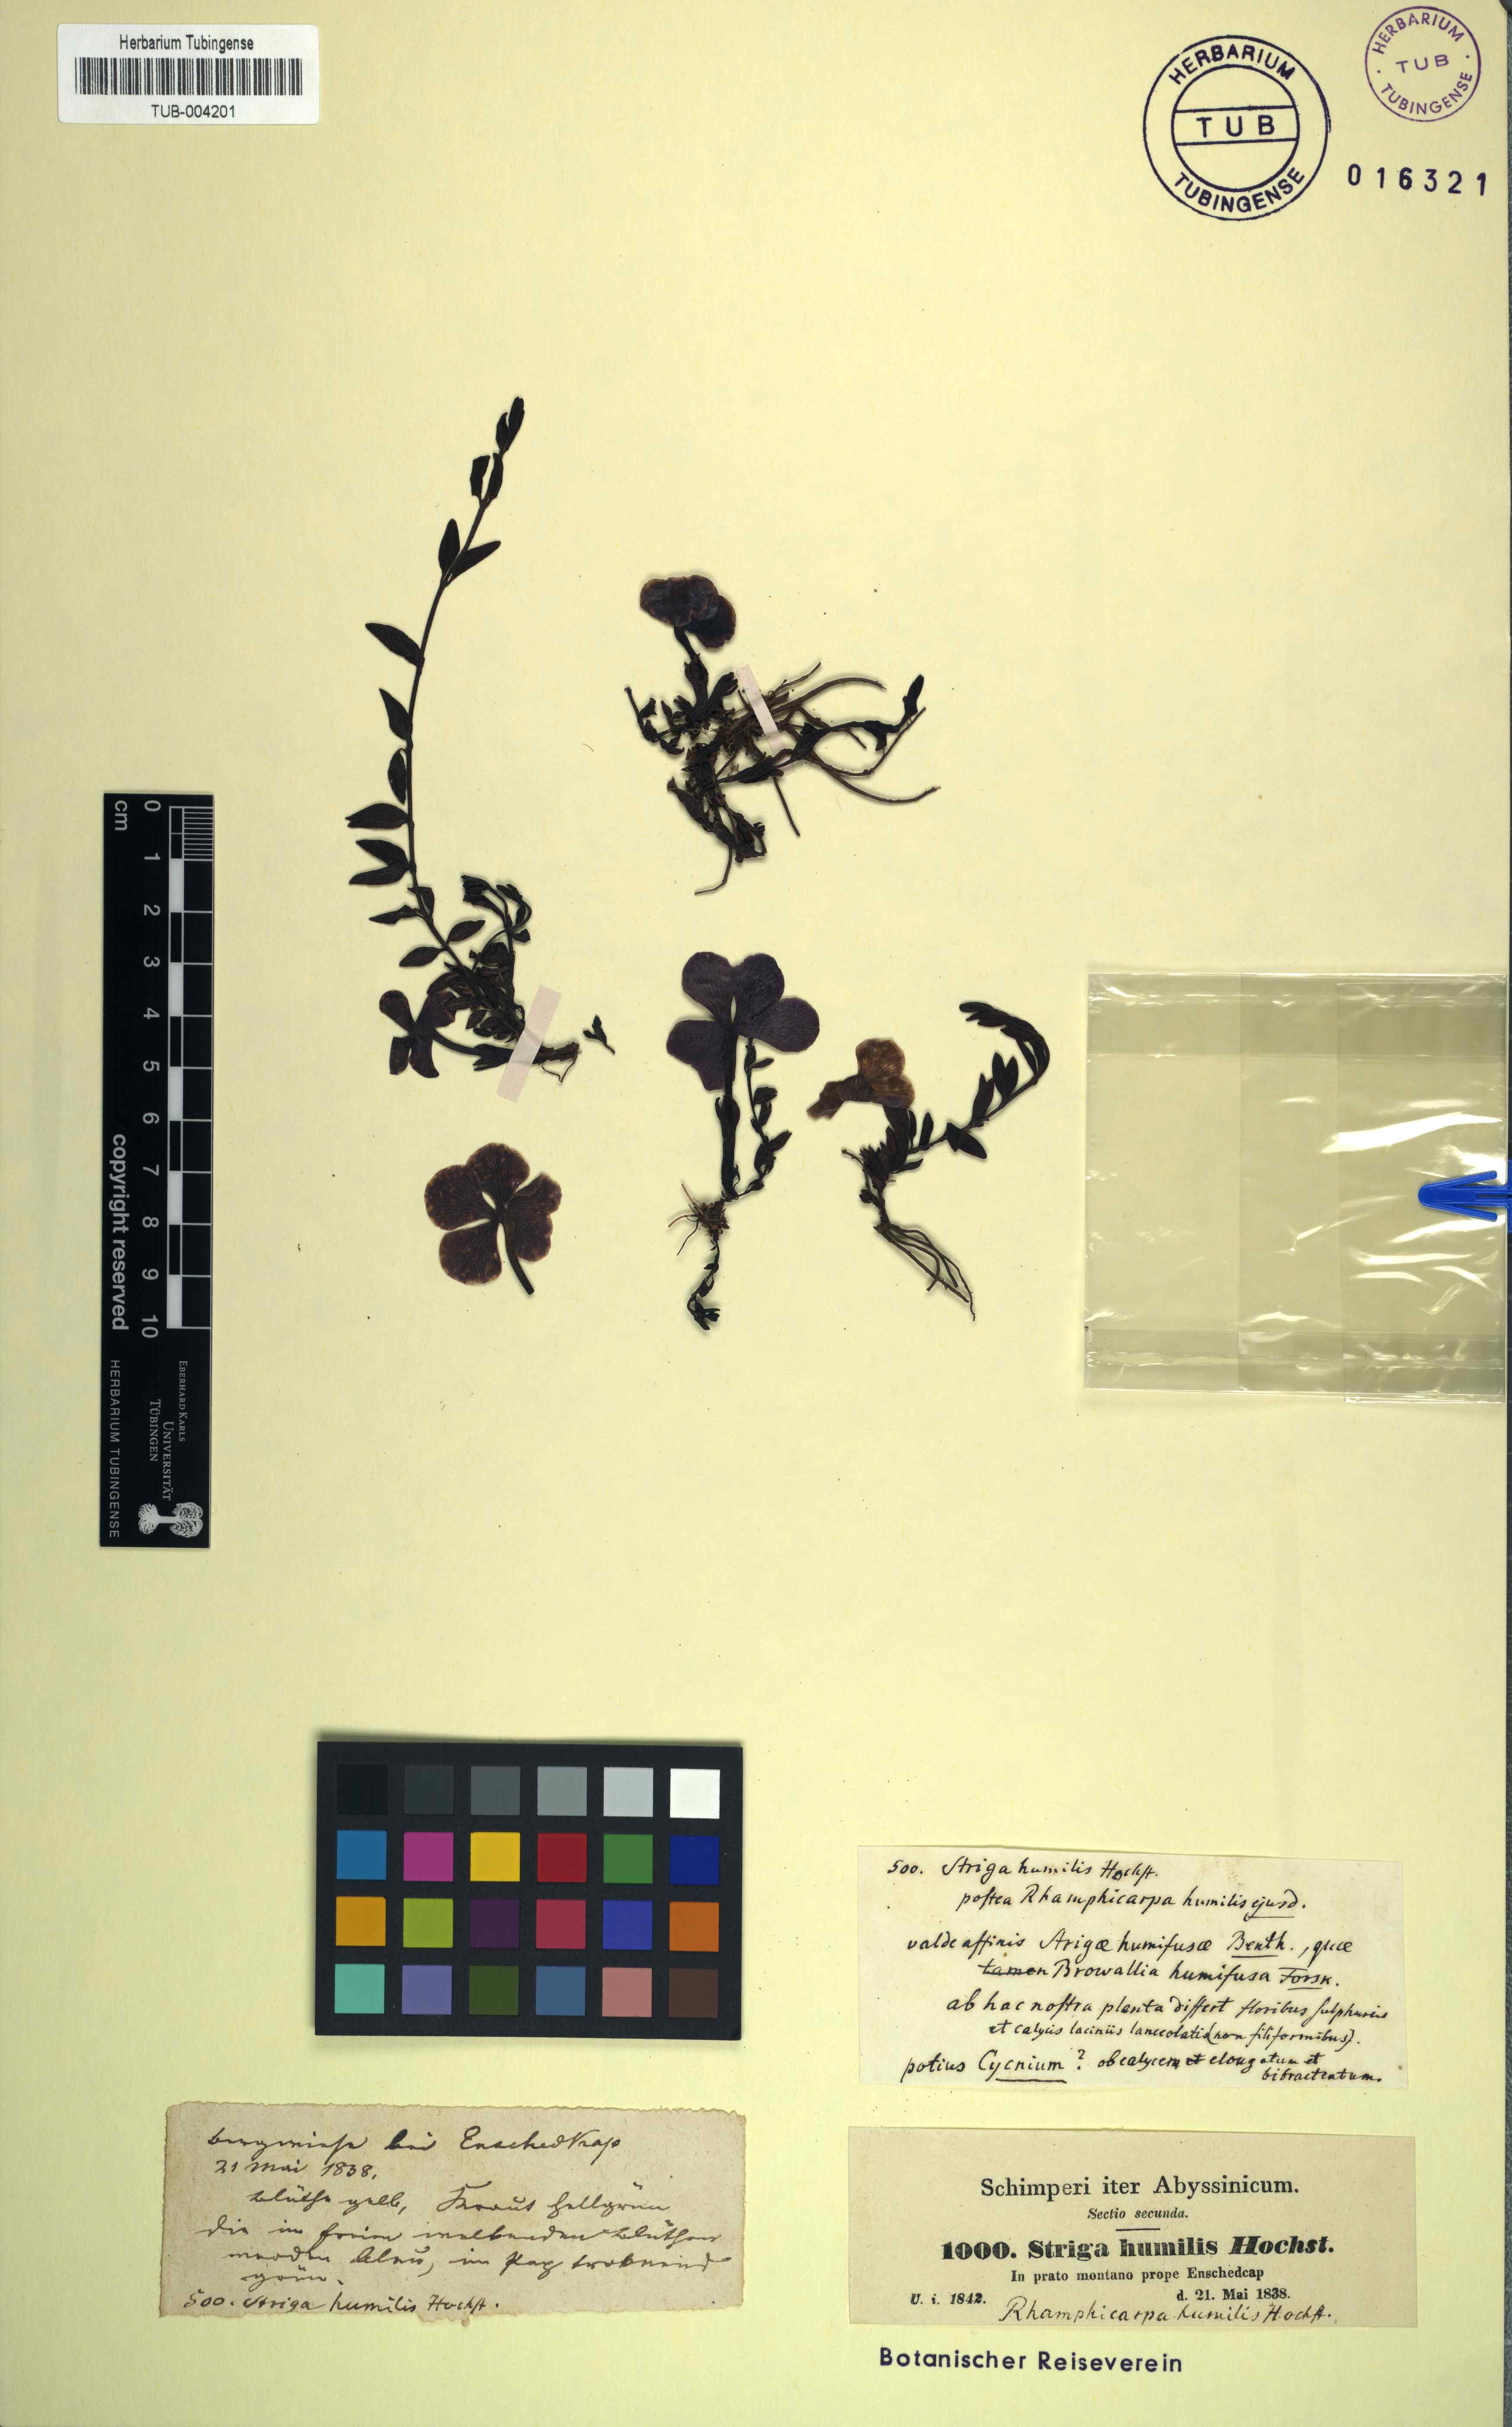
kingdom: Plantae
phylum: Tracheophyta
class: Magnoliopsida
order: Lamiales
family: Orobanchaceae
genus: Cycniopsis
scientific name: Cycniopsis humifusa
